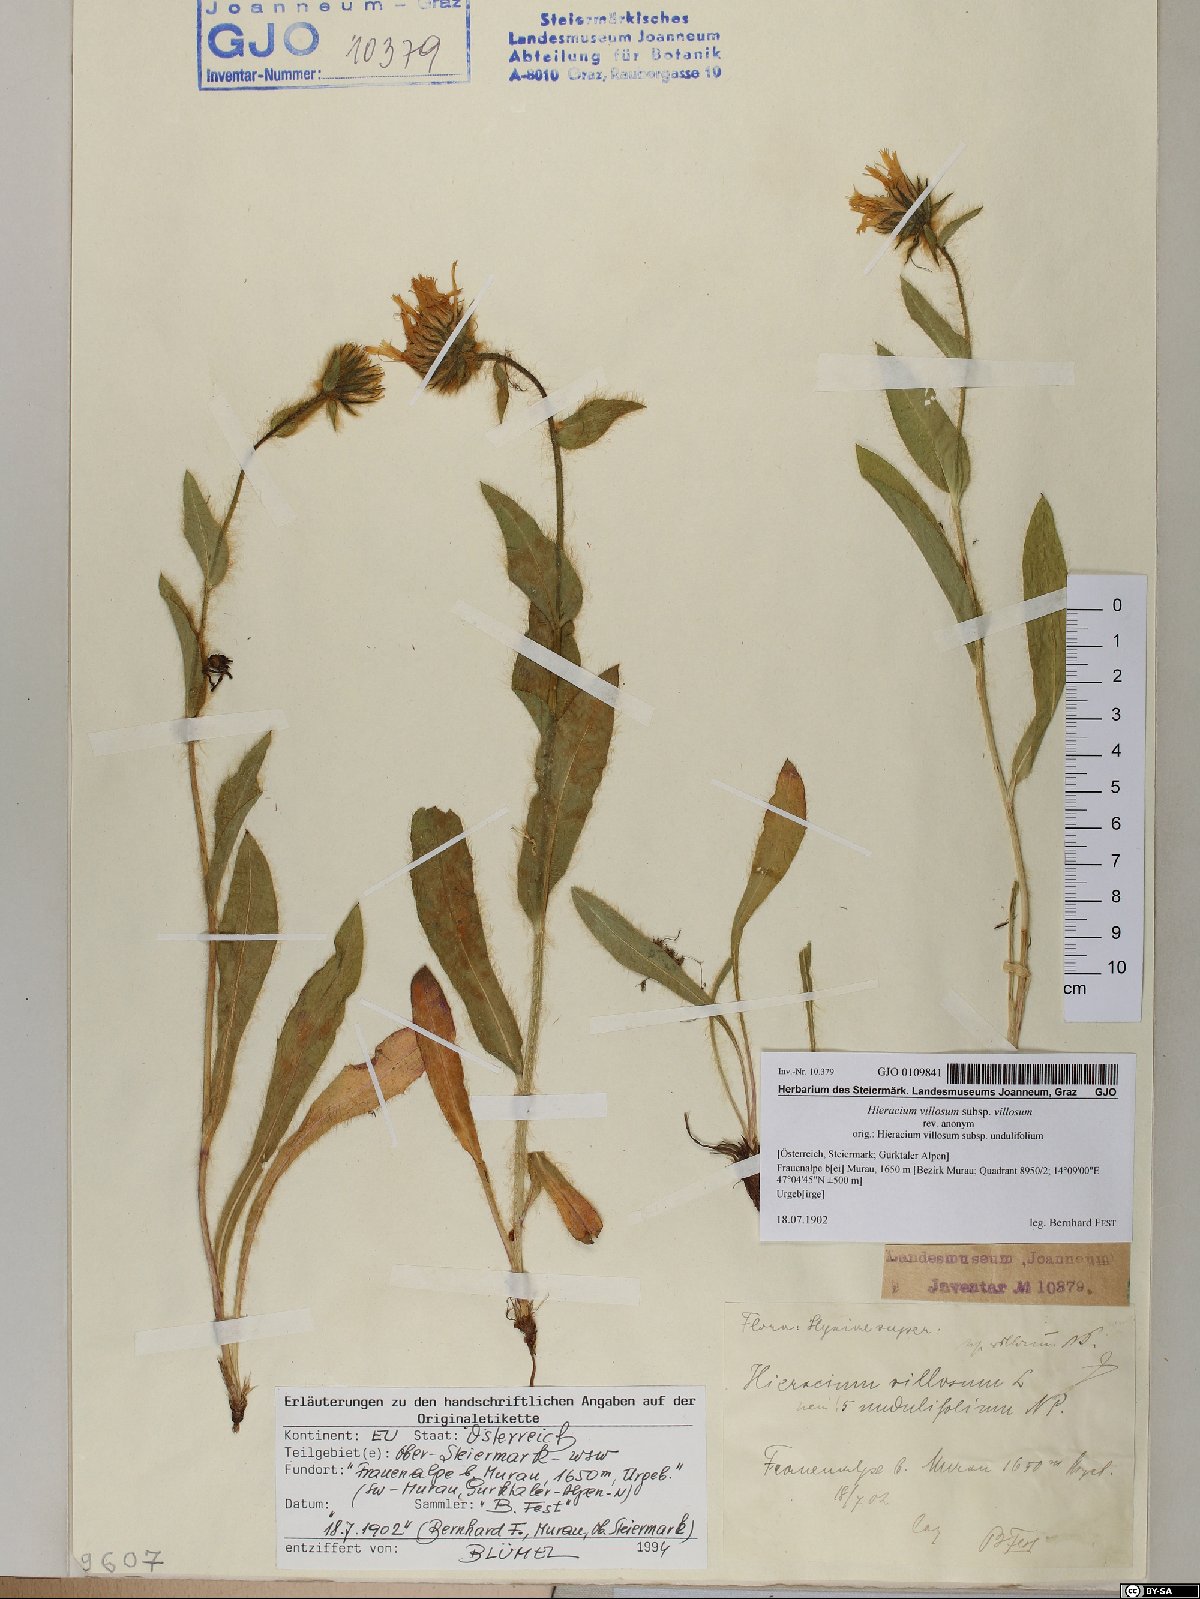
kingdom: Plantae
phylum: Tracheophyta
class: Magnoliopsida
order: Asterales
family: Asteraceae
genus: Hieracium
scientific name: Hieracium villosum
